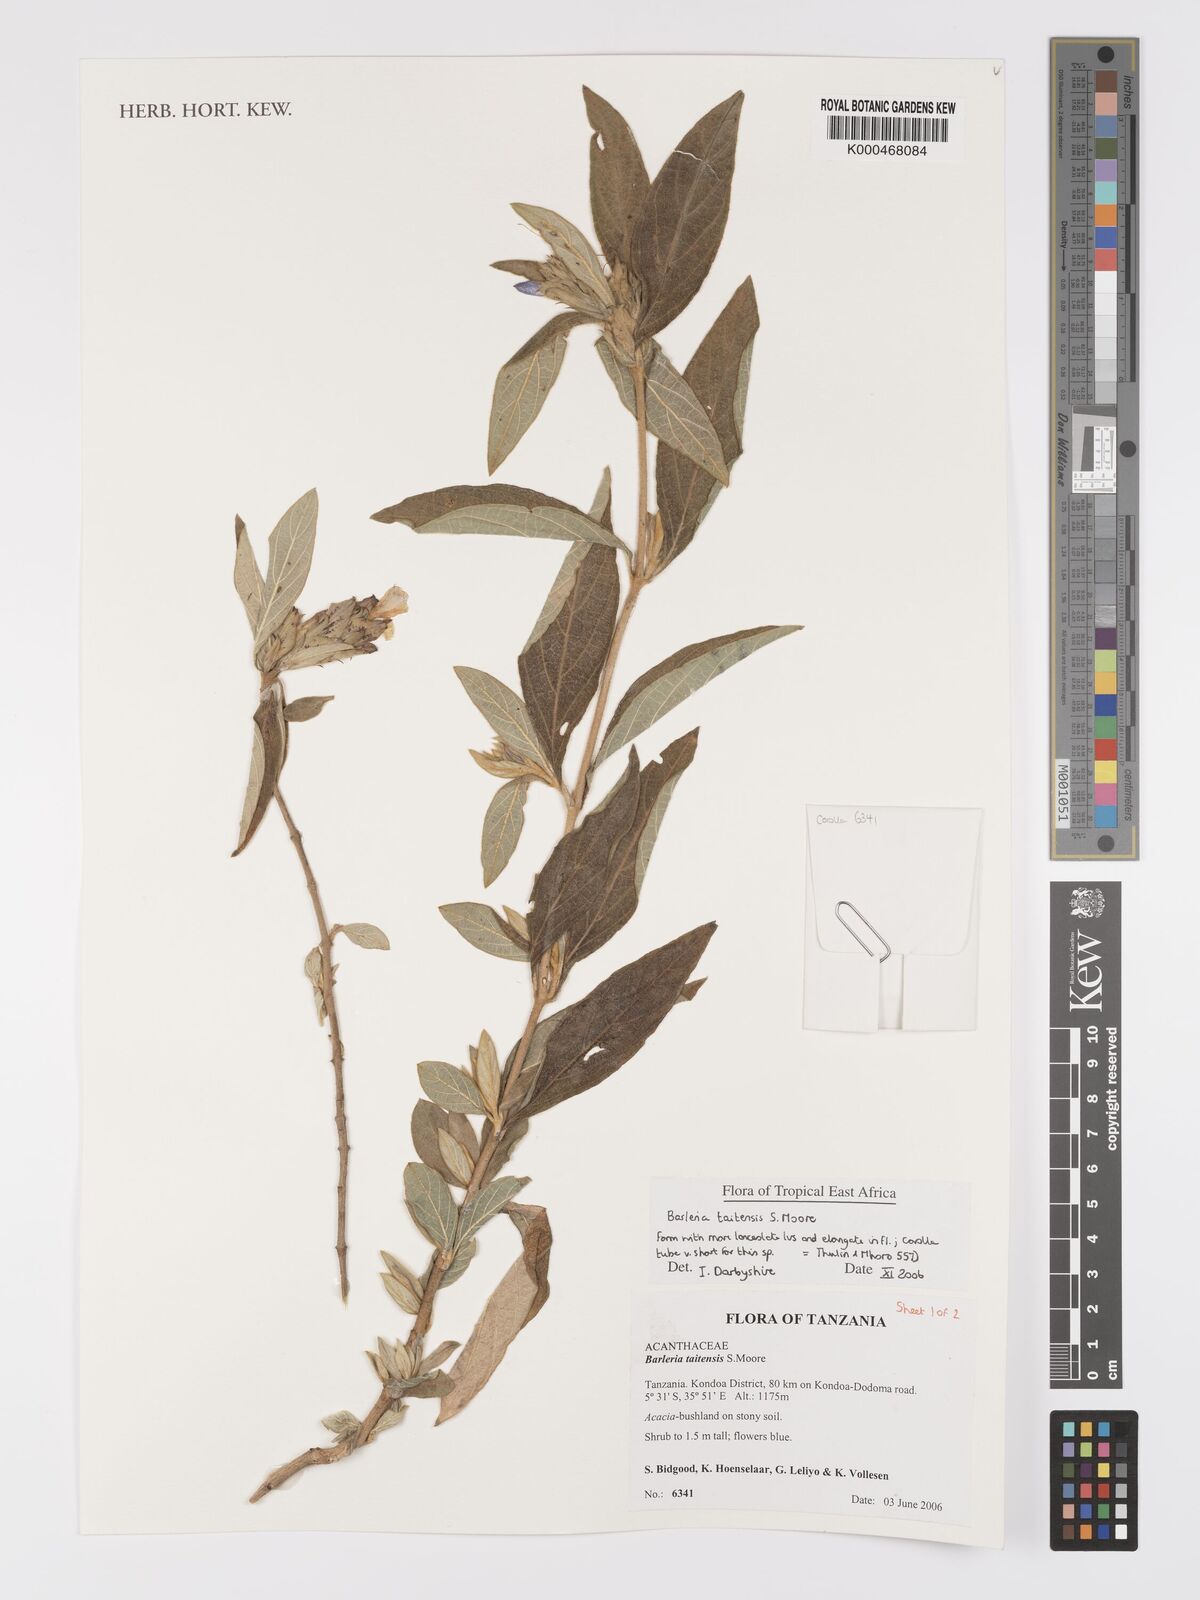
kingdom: Plantae
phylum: Tracheophyta
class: Magnoliopsida
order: Lamiales
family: Acanthaceae
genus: Barleria
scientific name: Barleria taitensis
